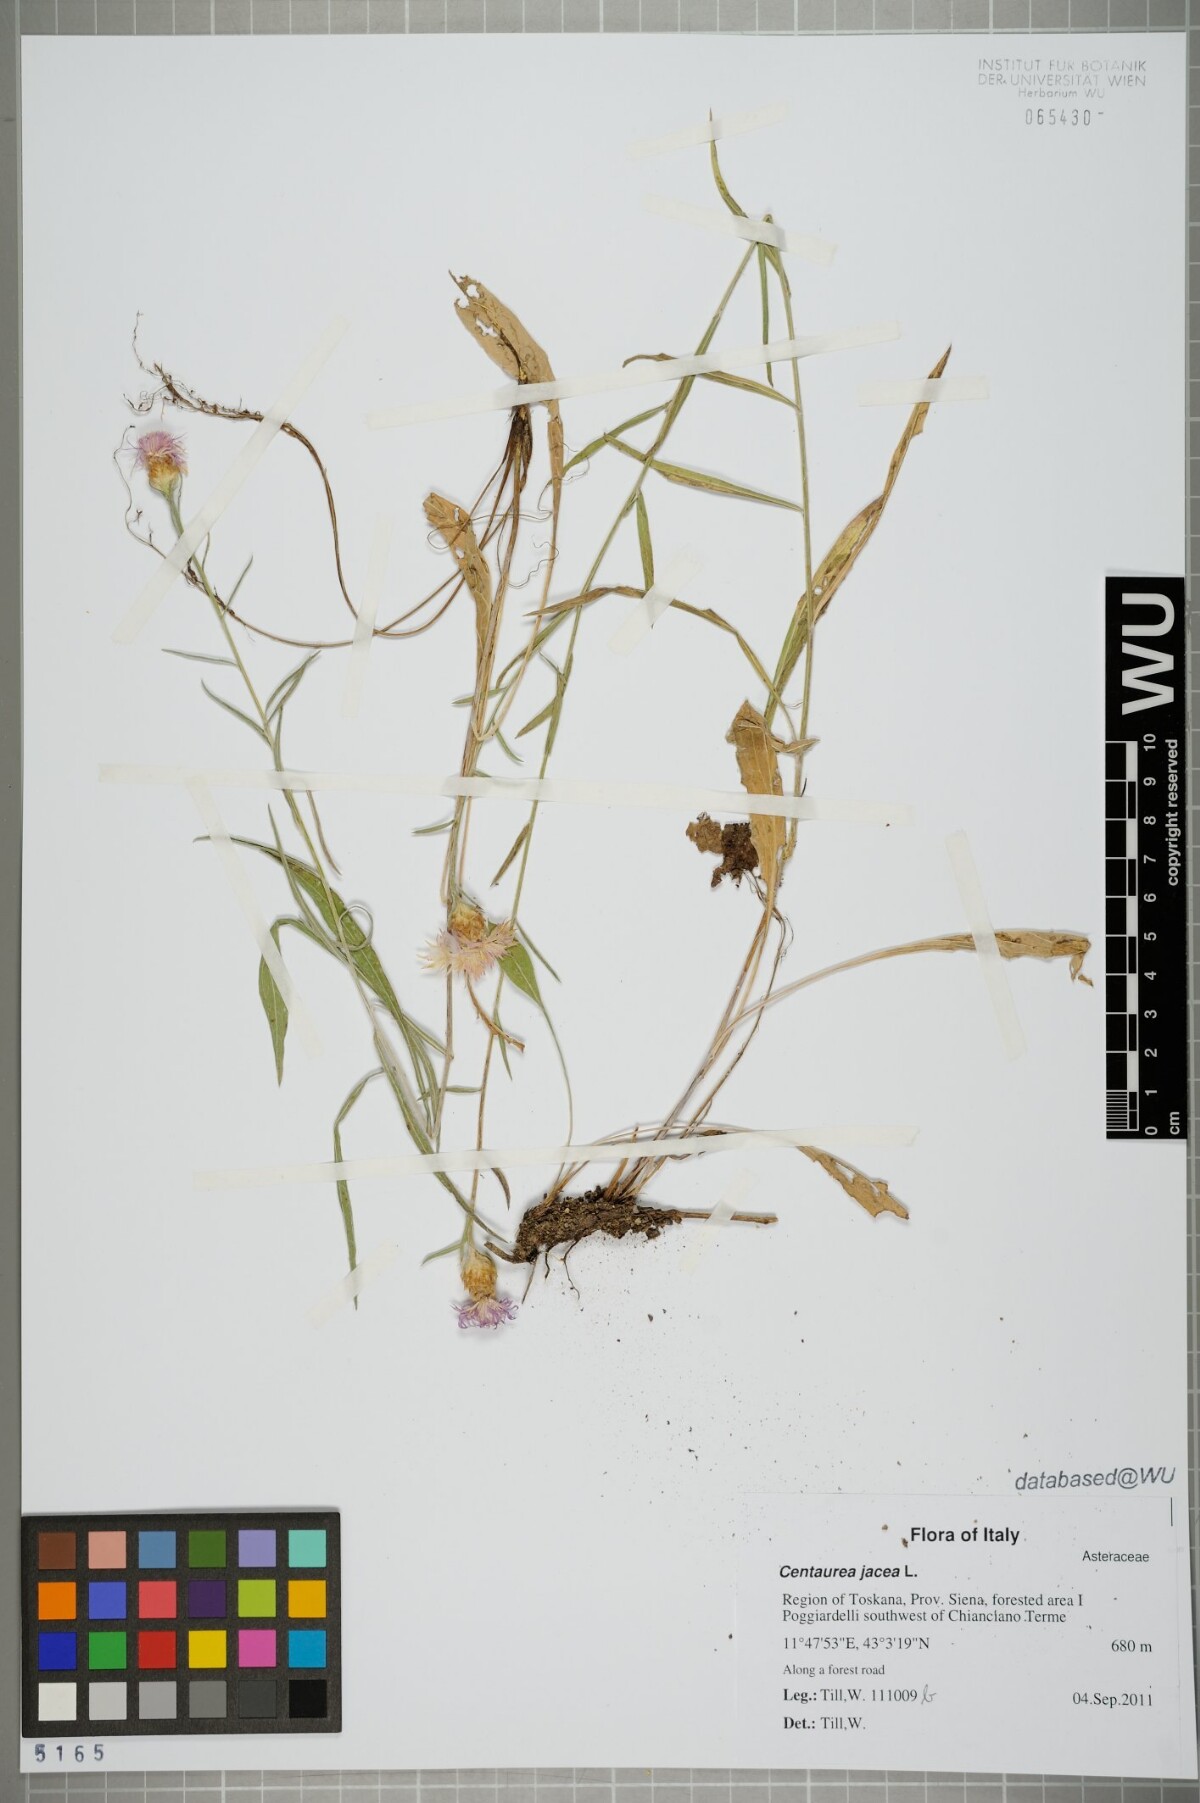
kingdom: Plantae
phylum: Tracheophyta
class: Magnoliopsida
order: Asterales
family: Asteraceae
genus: Centaurea
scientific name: Centaurea jacea
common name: Brown knapweed
